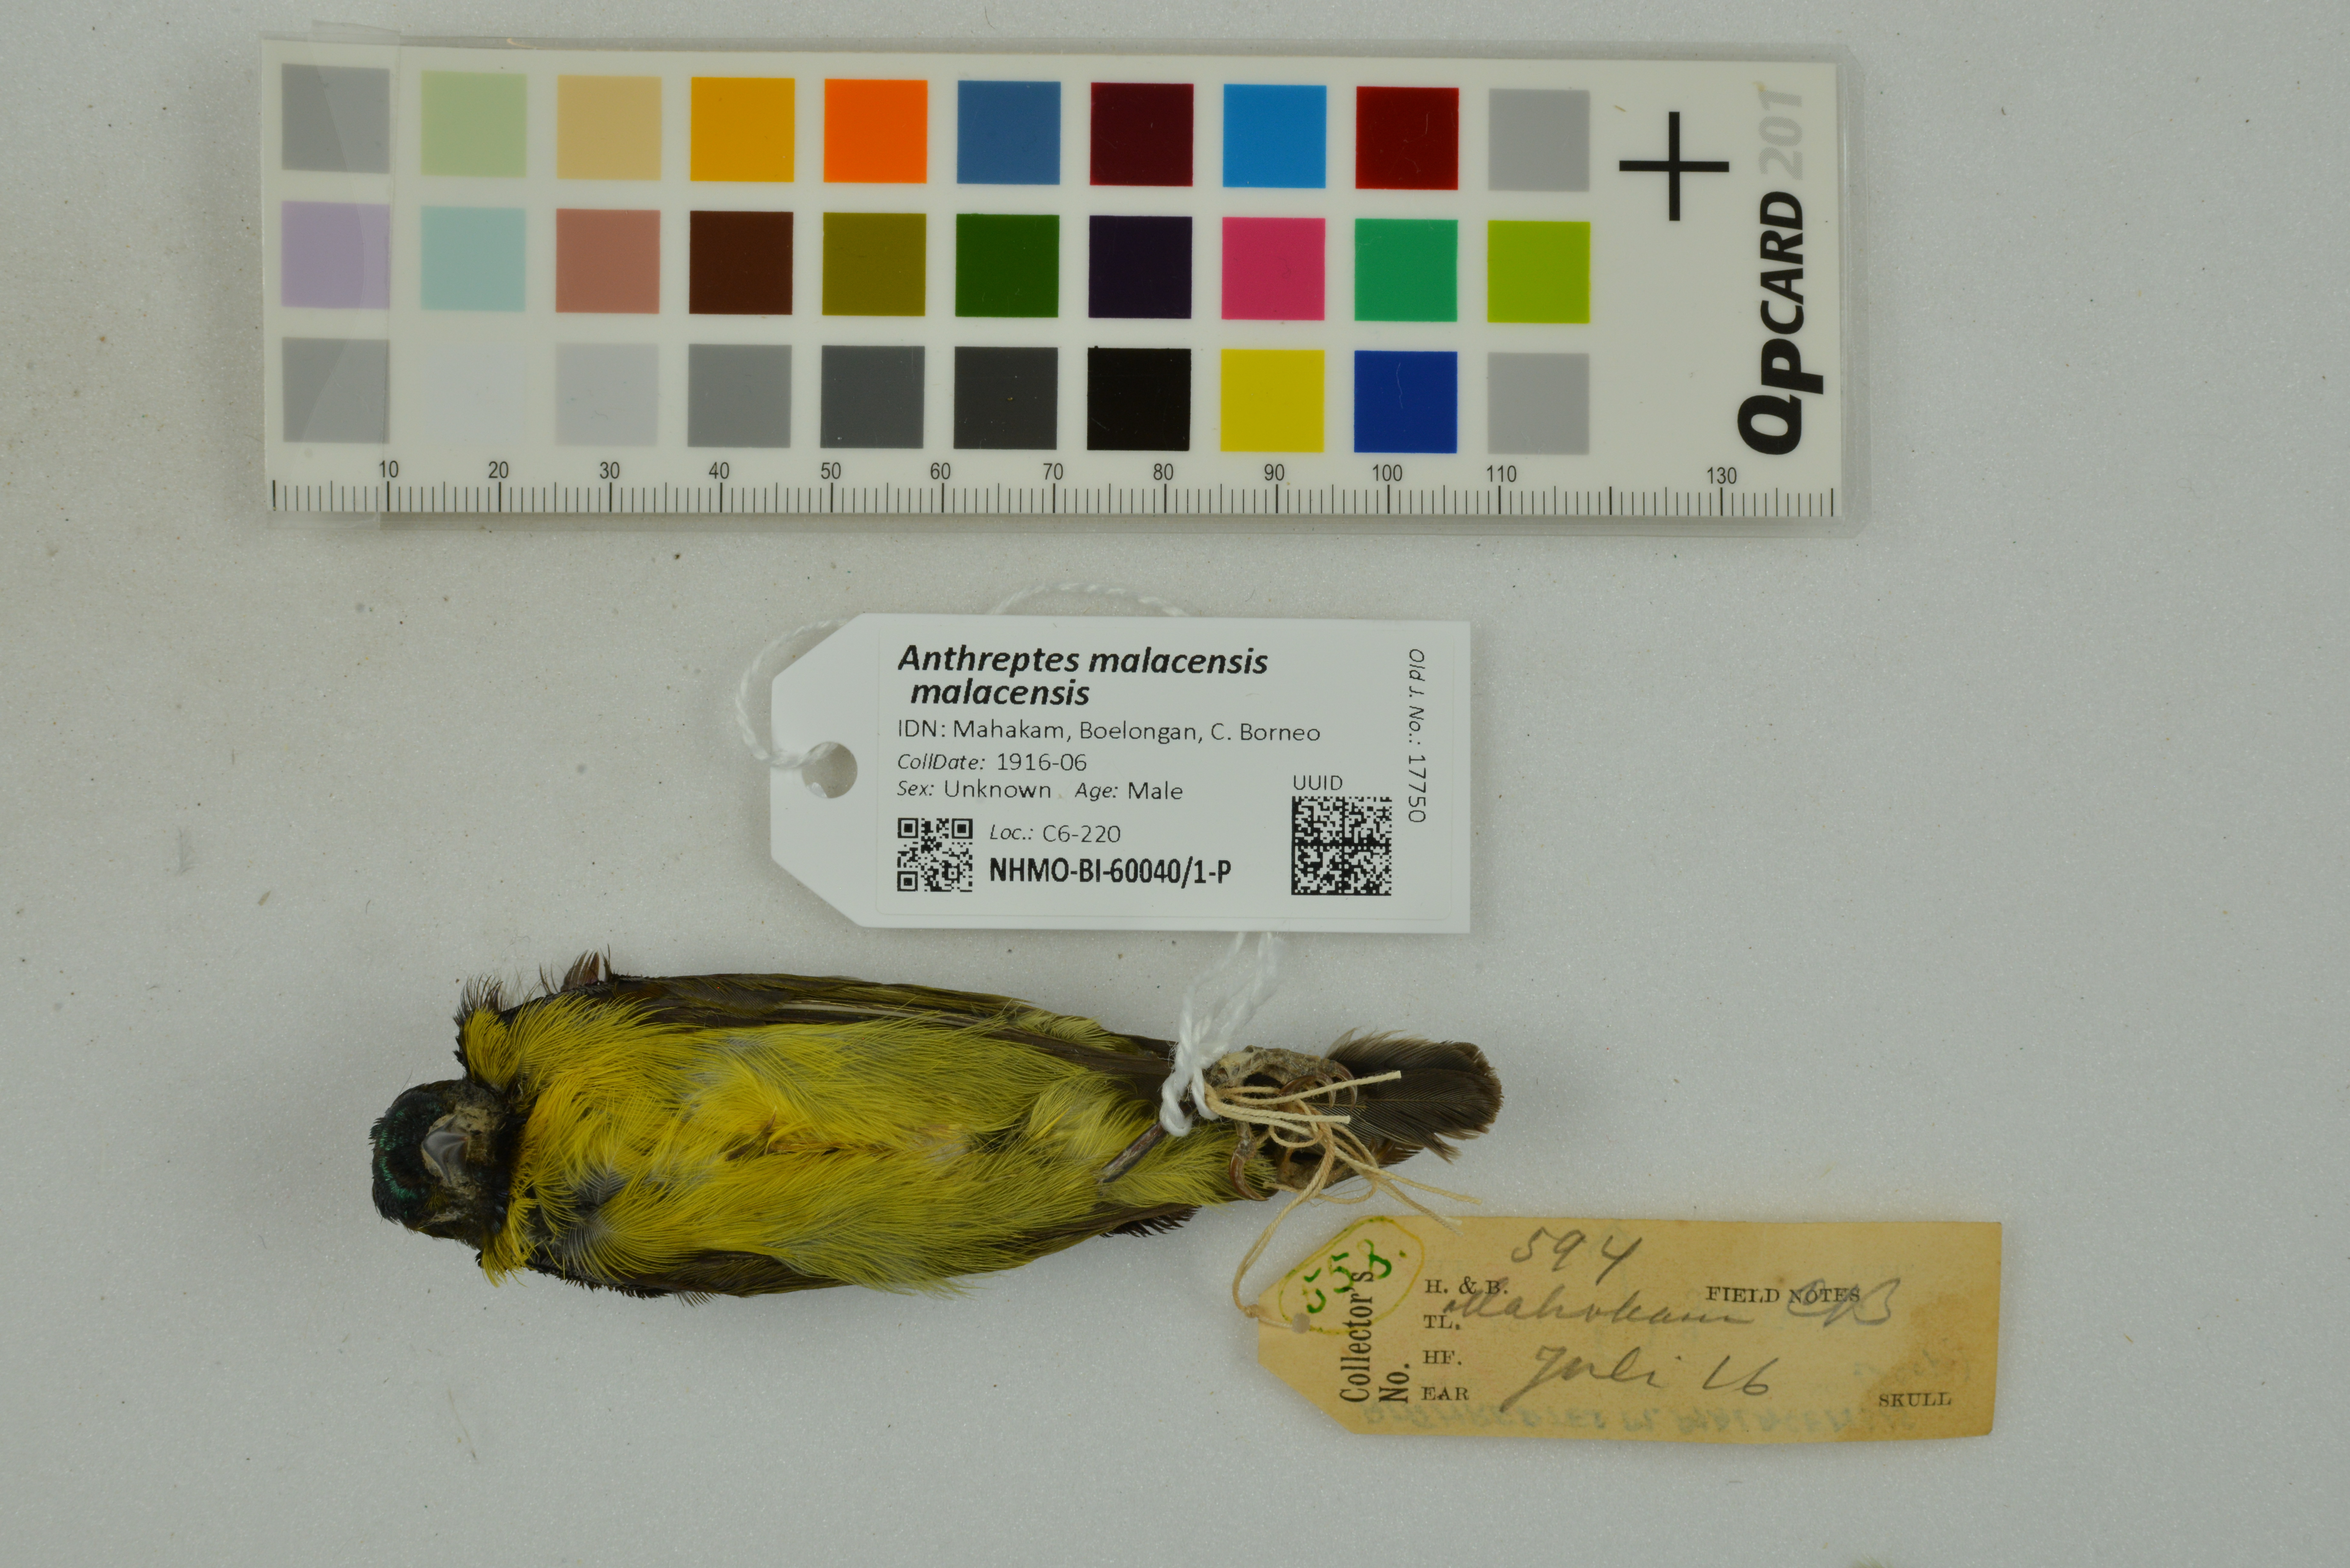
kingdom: Animalia
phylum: Chordata
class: Aves
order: Passeriformes
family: Nectariniidae
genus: Anthreptes
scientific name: Anthreptes malacensis
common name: Brown-throated sunbird
